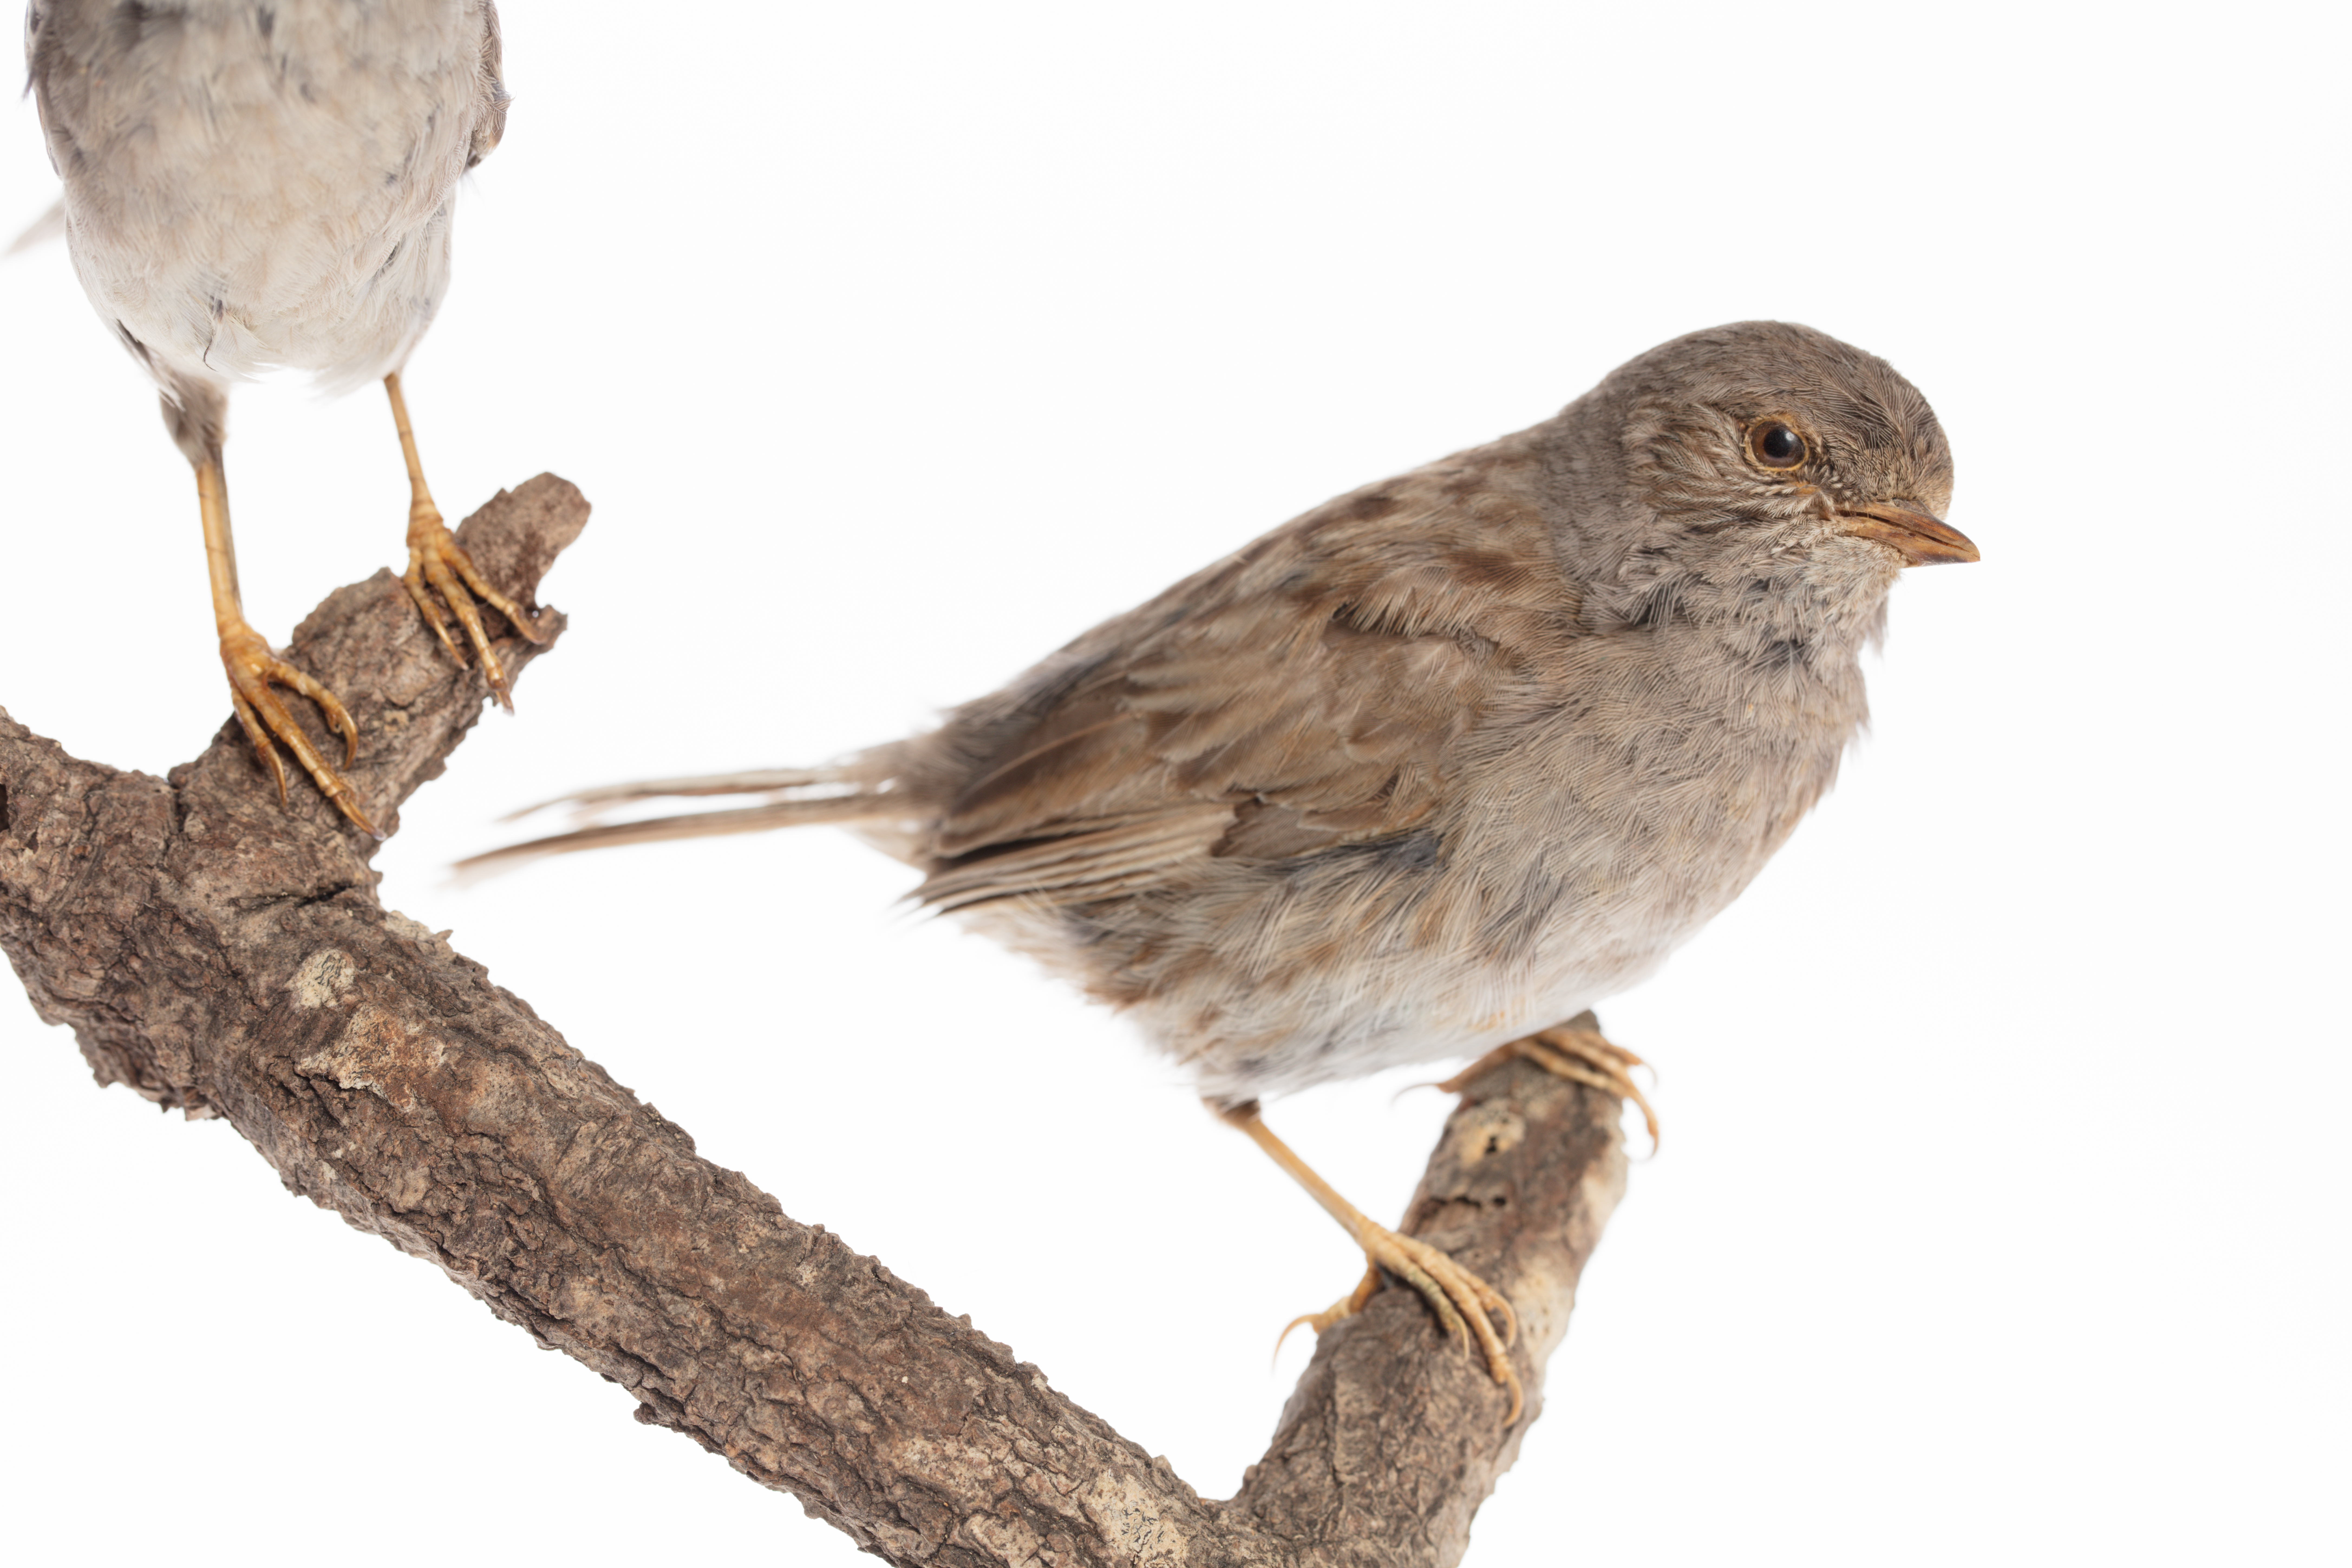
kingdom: Animalia
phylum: Chordata
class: Aves
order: Passeriformes
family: Prunellidae
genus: Prunella
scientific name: Prunella modularis
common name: Dunnock
